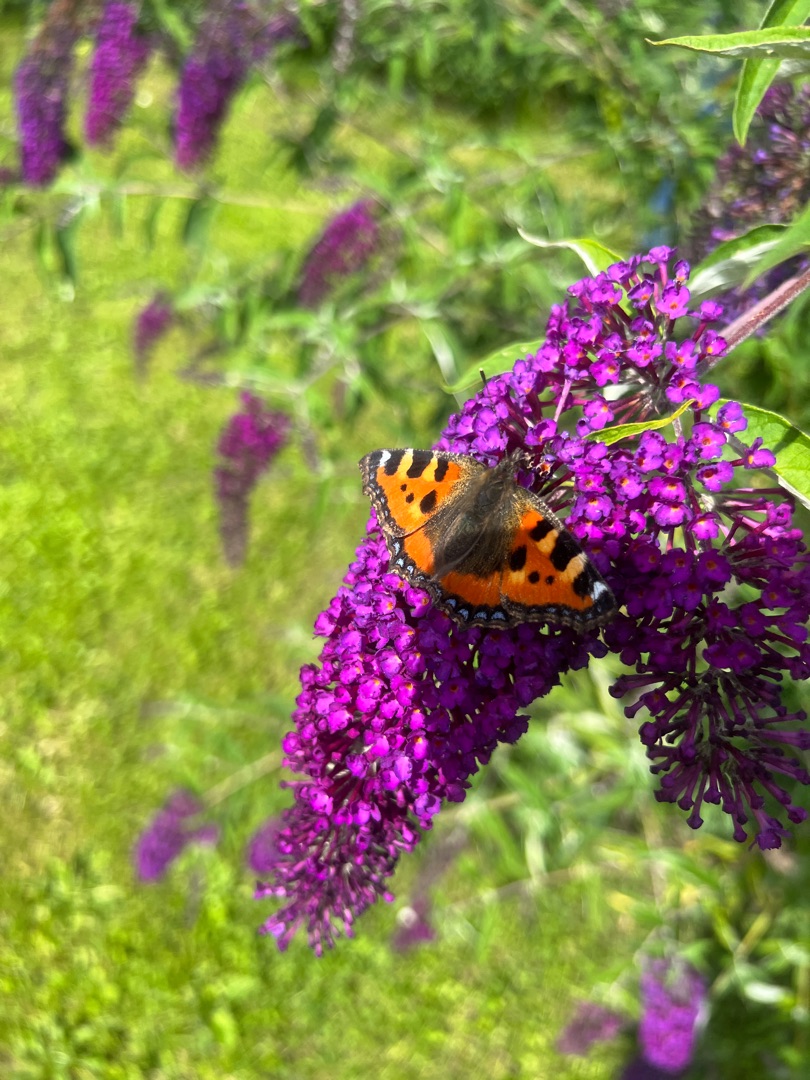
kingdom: Animalia
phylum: Arthropoda
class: Insecta
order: Lepidoptera
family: Nymphalidae
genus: Aglais
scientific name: Aglais urticae
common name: Nældens takvinge
